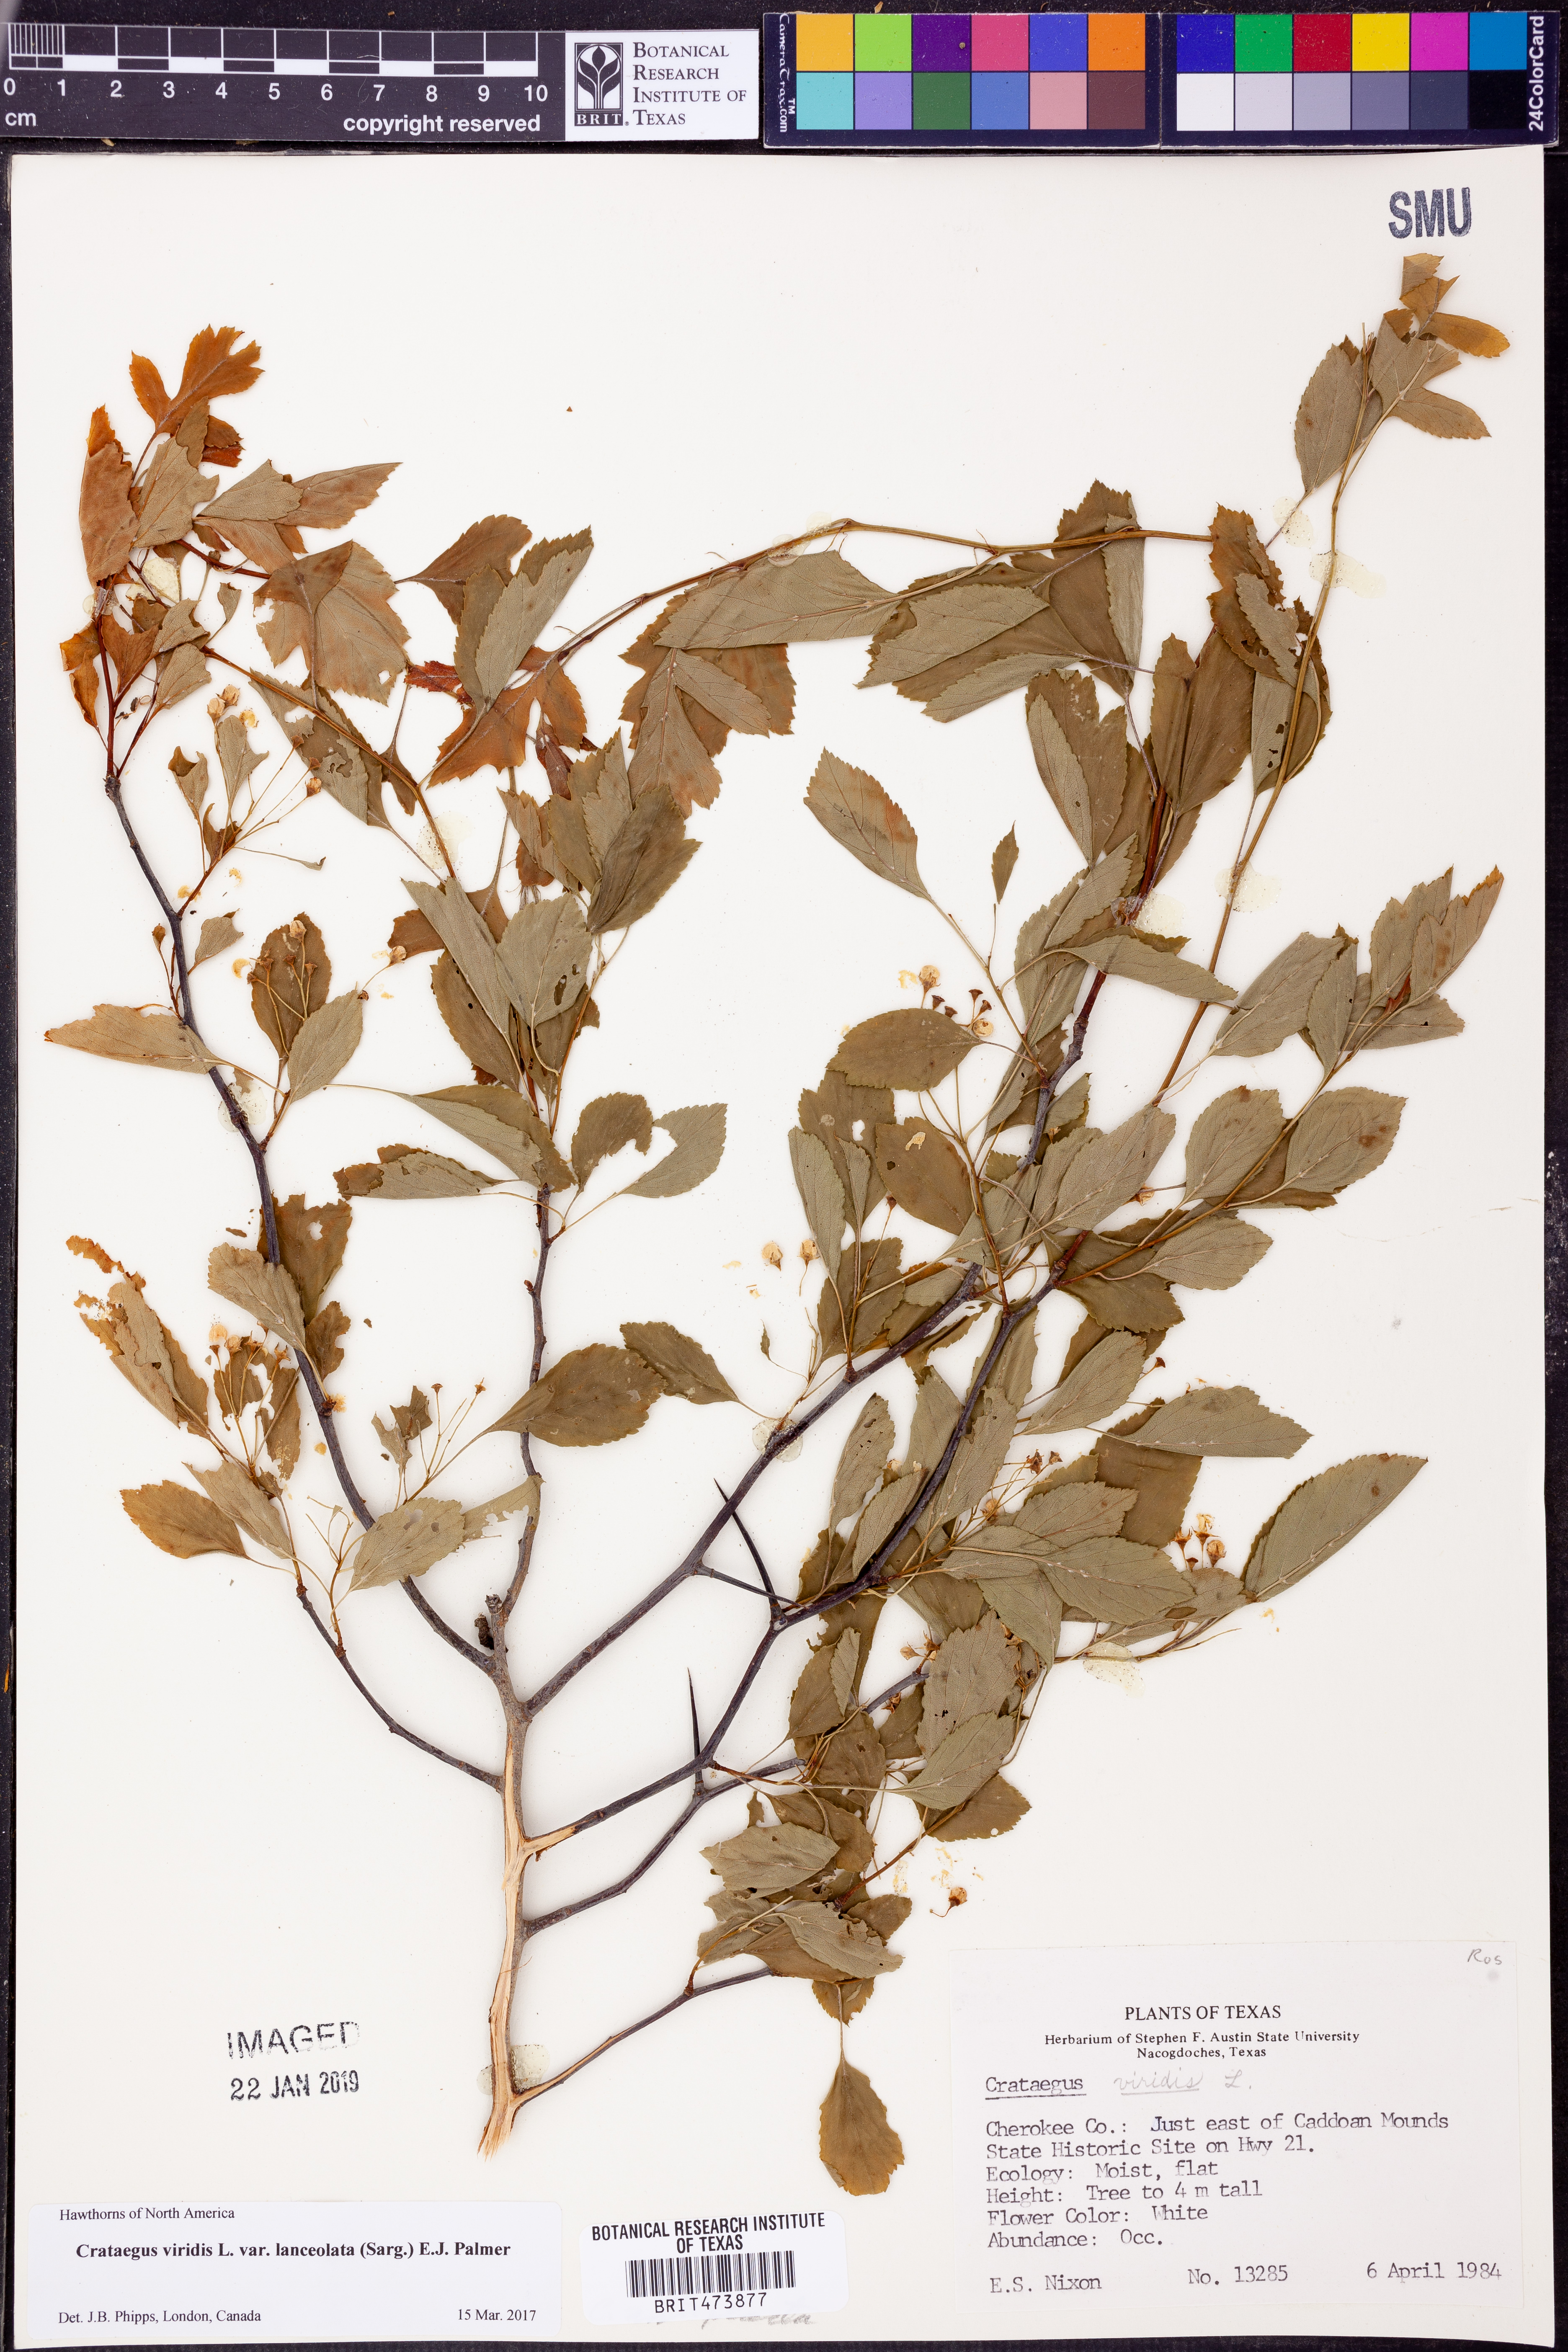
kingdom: Plantae
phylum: Tracheophyta
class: Magnoliopsida
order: Rosales
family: Rosaceae
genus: Crataegus
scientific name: Crataegus viridis
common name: Southernthorn
